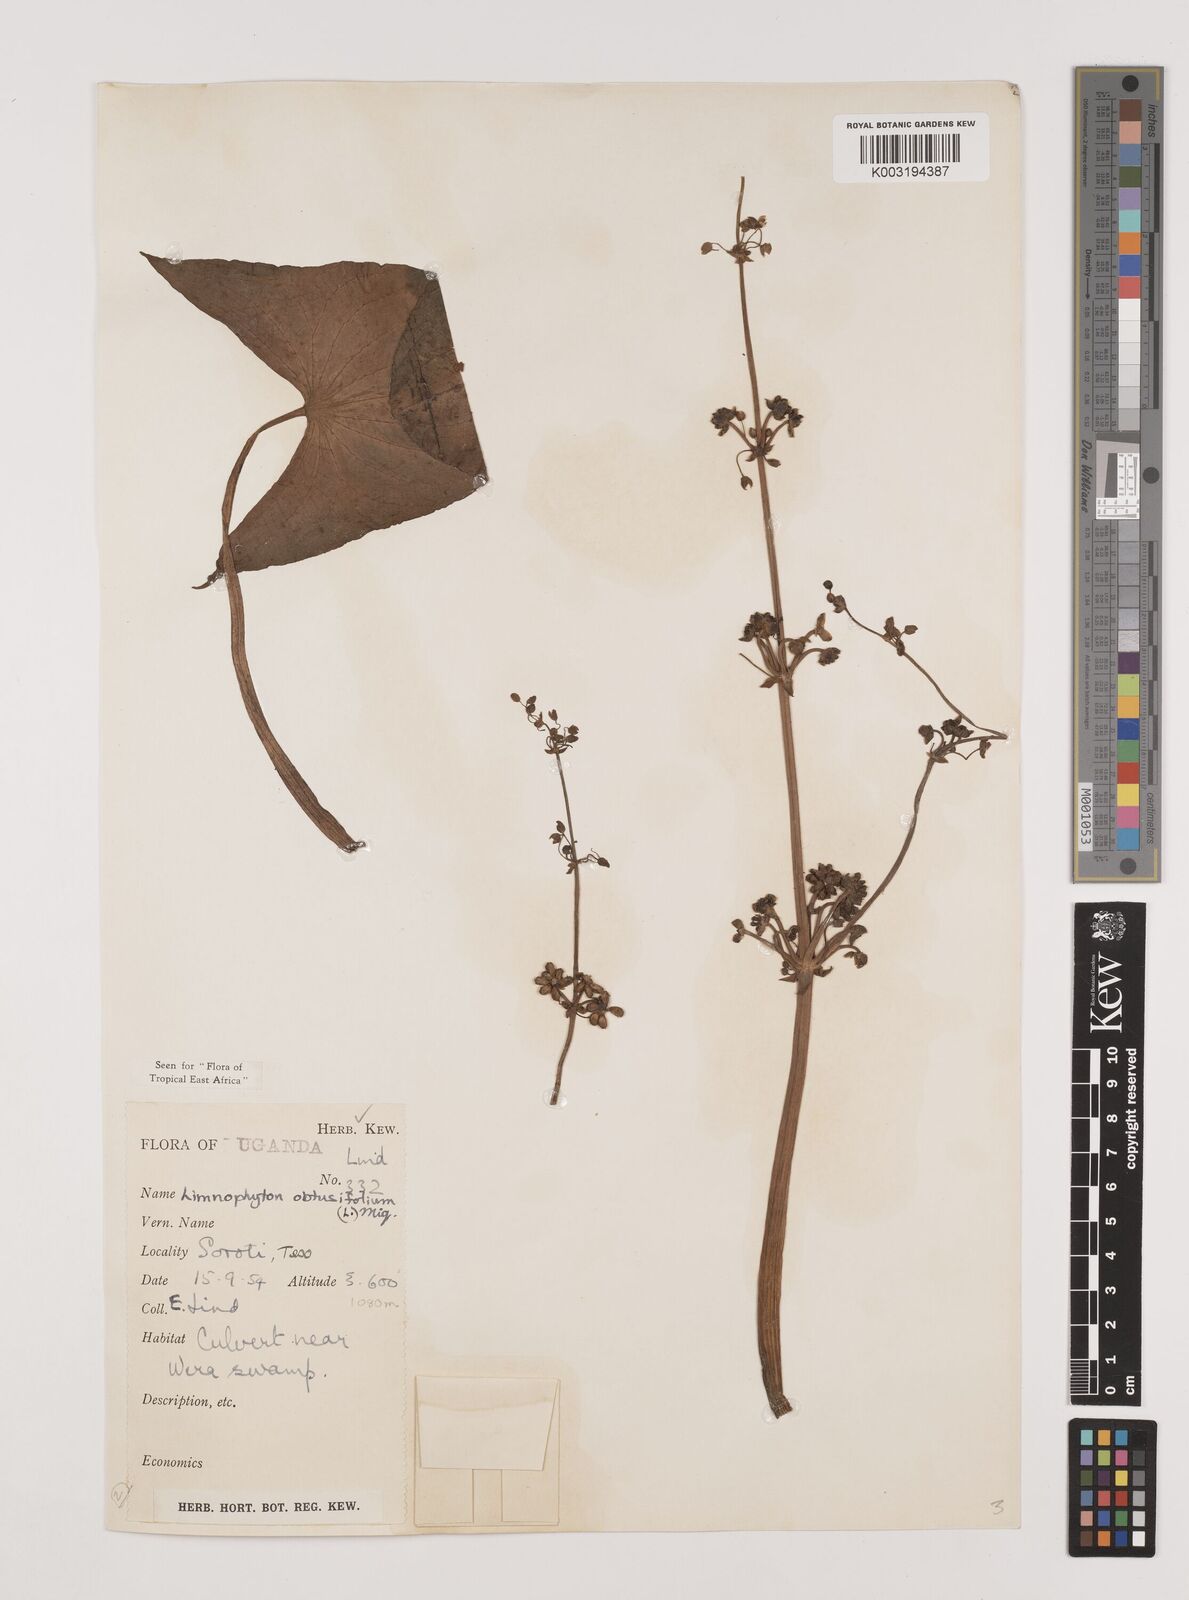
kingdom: Plantae
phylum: Tracheophyta
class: Liliopsida
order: Alismatales
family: Alismataceae
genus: Limnophyton
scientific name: Limnophyton obtusifolium
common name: Arrow head
